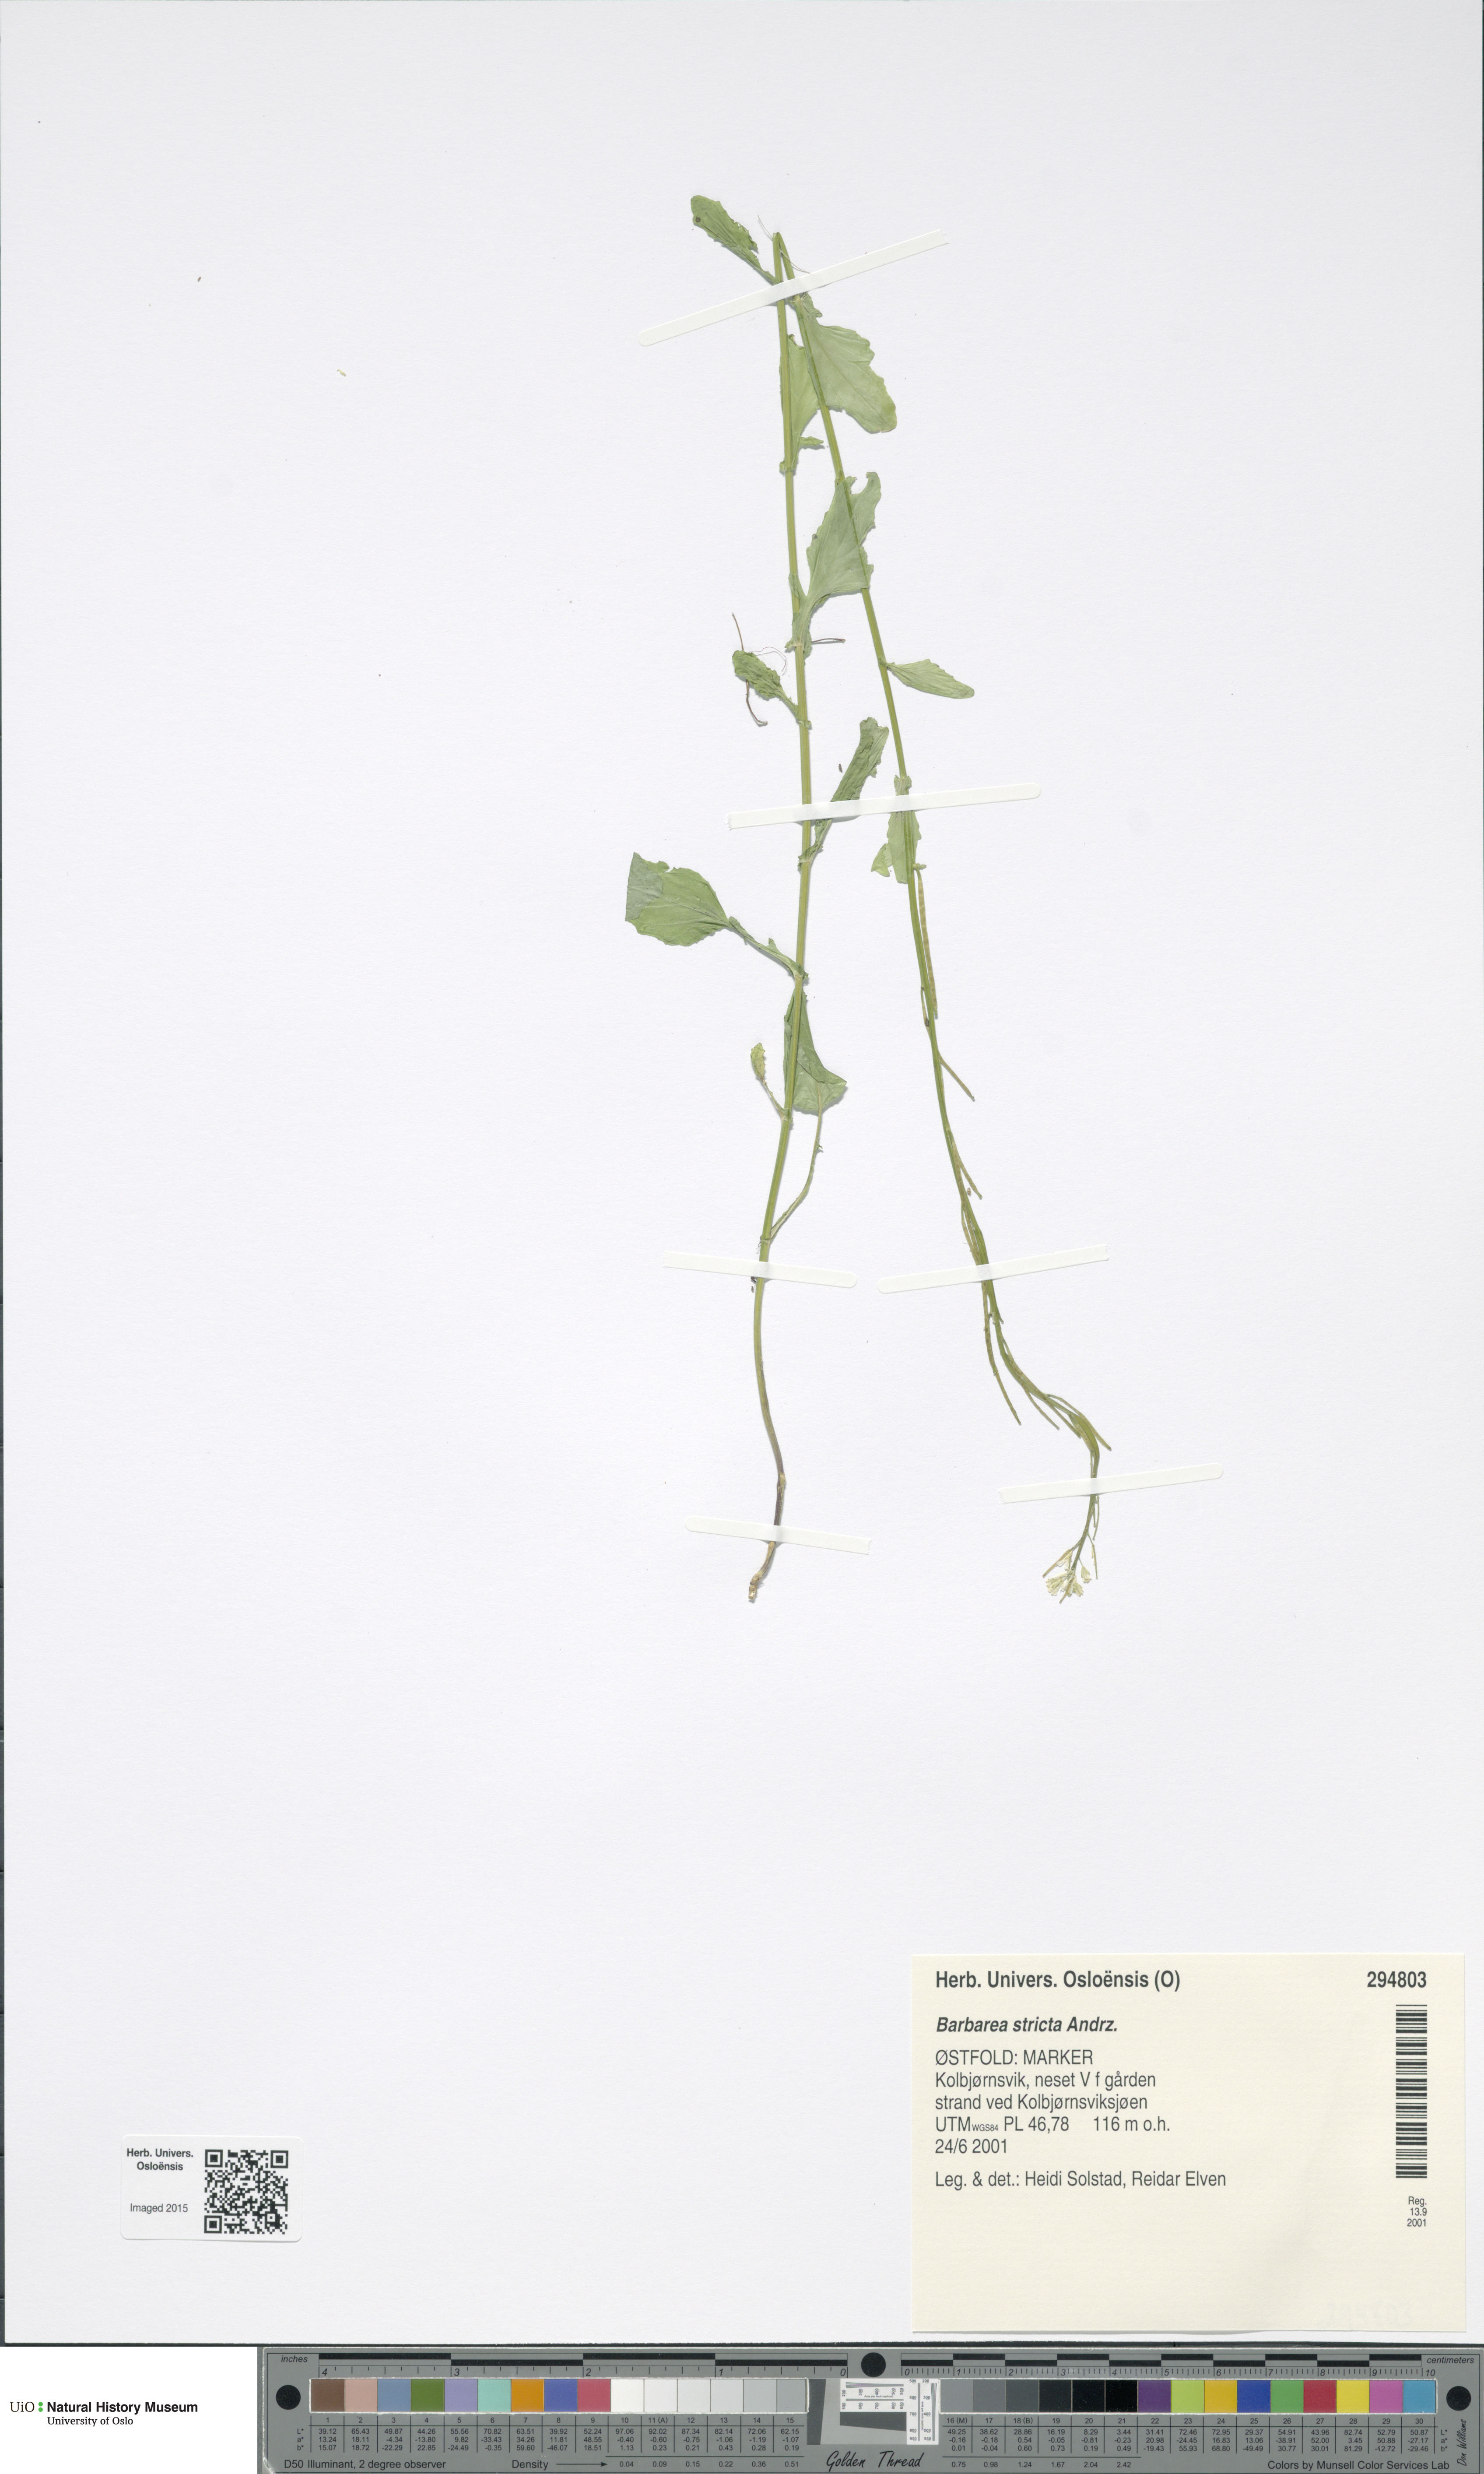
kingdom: Plantae
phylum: Tracheophyta
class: Magnoliopsida
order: Brassicales
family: Brassicaceae
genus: Barbarea
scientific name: Barbarea stricta
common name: Small-flowered winter-cress
